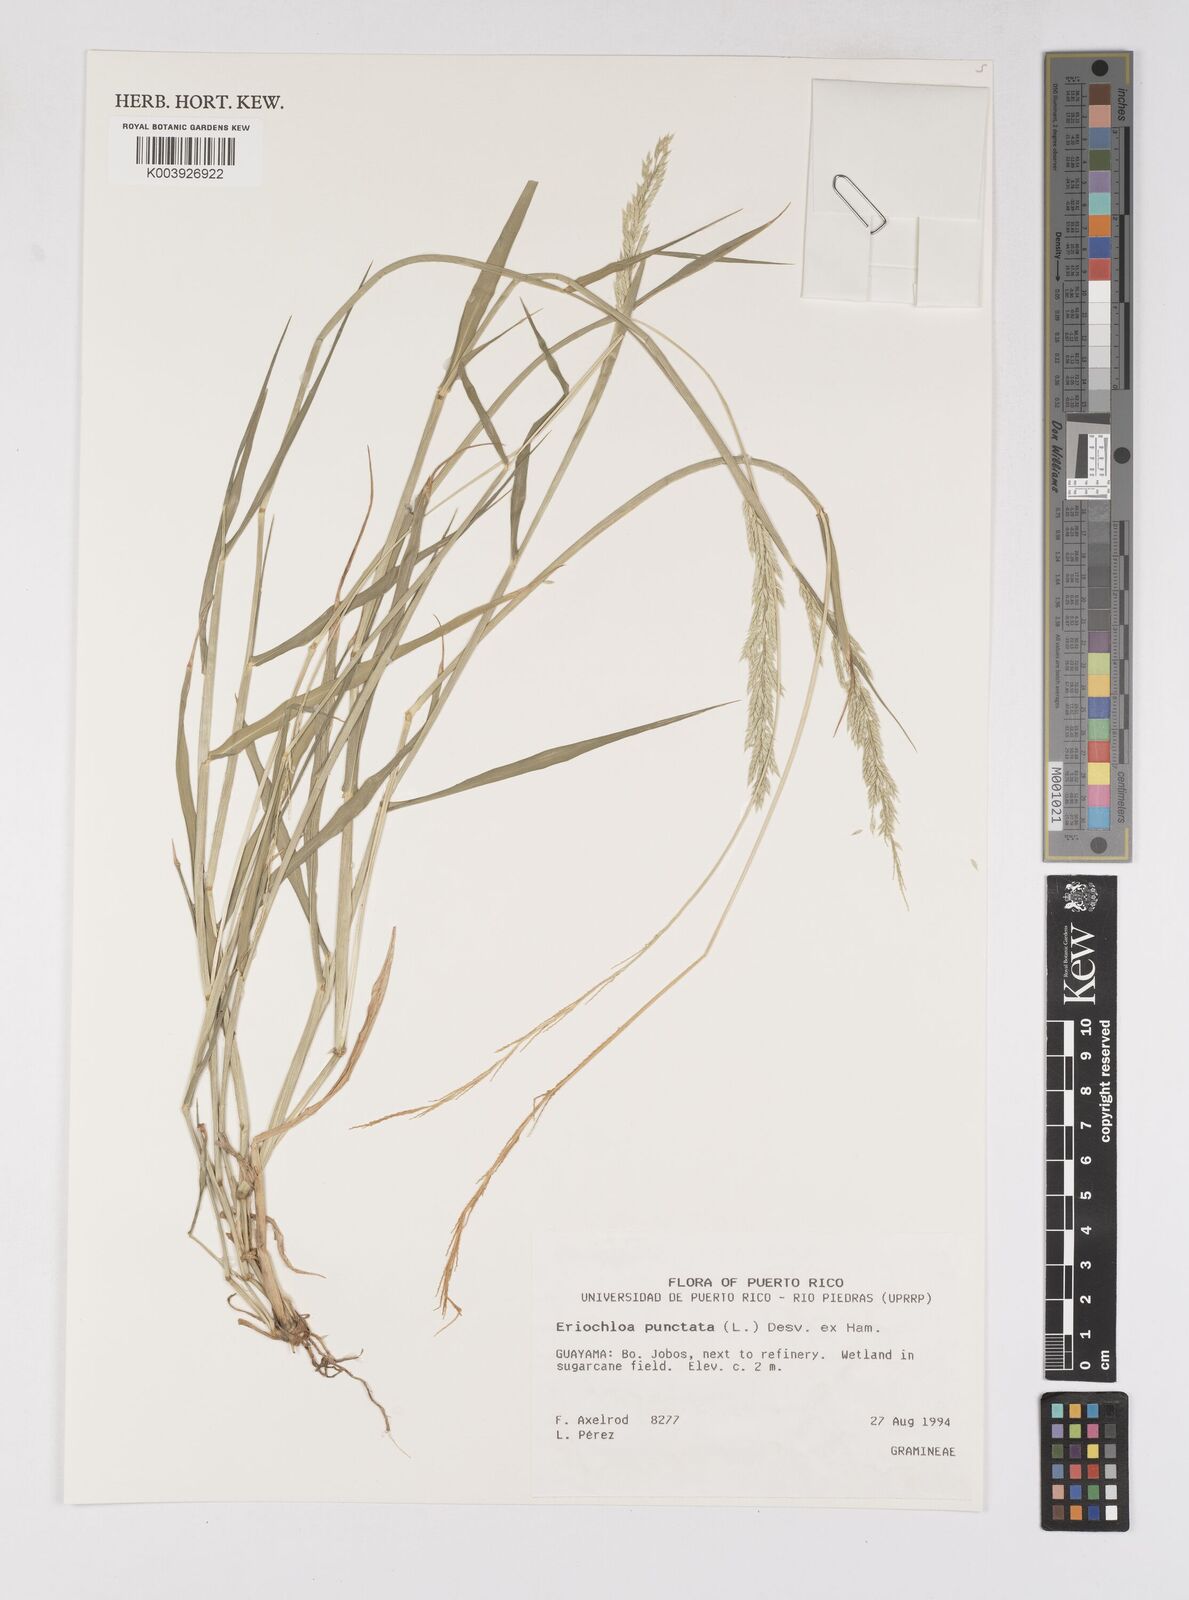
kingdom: Plantae
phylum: Tracheophyta
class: Liliopsida
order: Poales
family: Poaceae
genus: Eriochloa
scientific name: Eriochloa punctata
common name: Louisiana cupgrass
